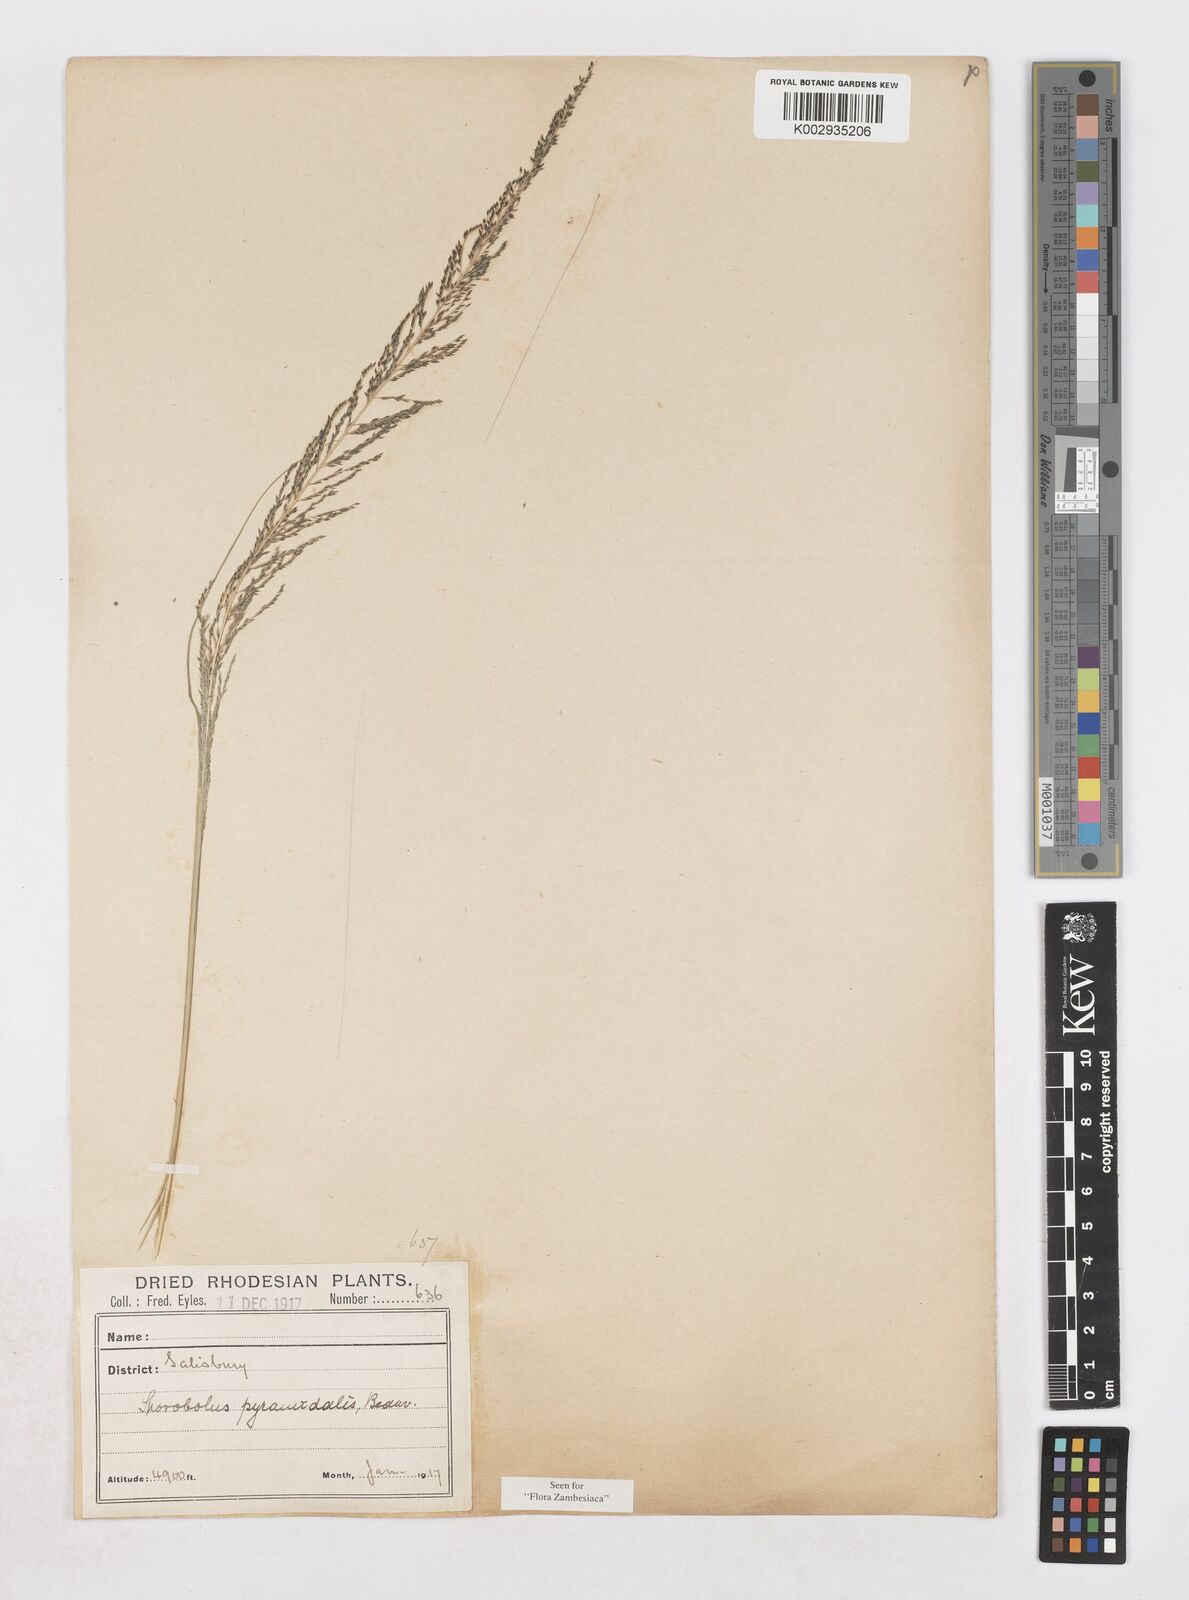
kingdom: Plantae
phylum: Tracheophyta
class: Liliopsida
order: Poales
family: Poaceae
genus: Sporobolus
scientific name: Sporobolus pyramidalis
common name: West indian dropseed
